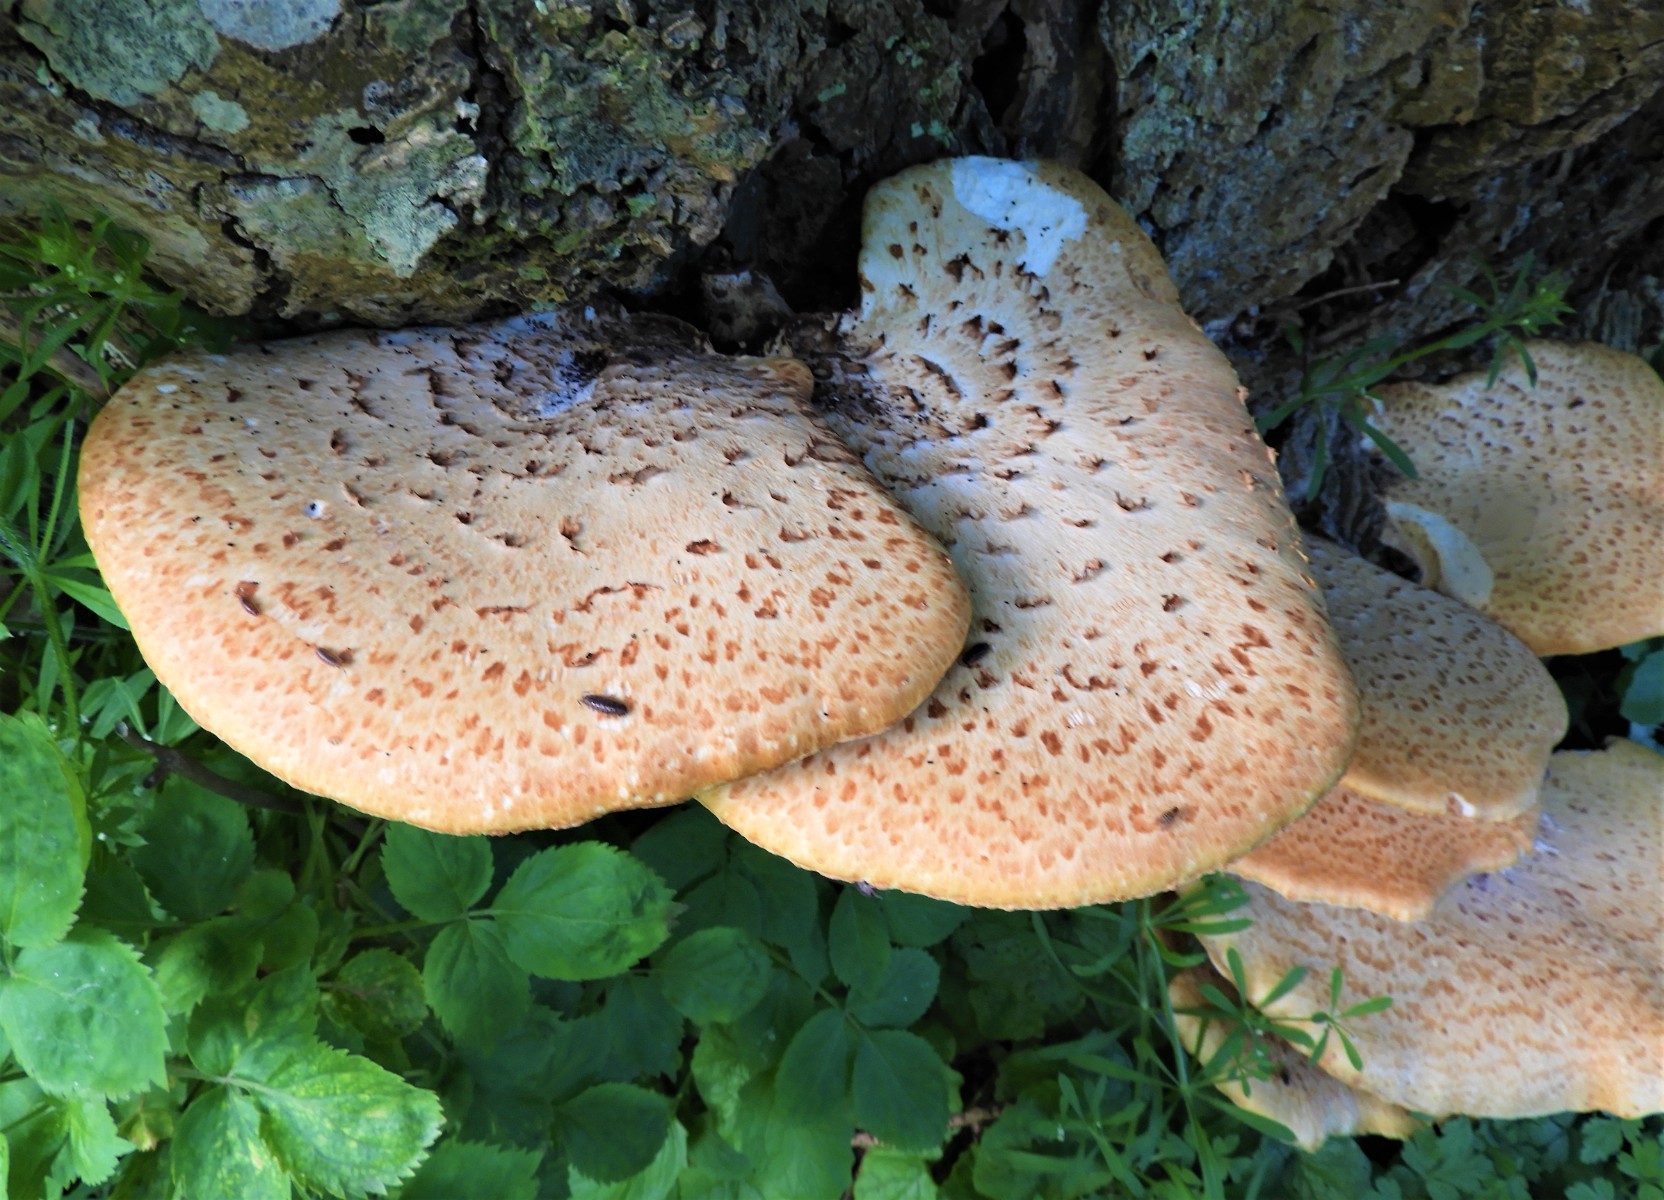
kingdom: Fungi
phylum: Basidiomycota
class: Agaricomycetes
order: Polyporales
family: Polyporaceae
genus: Cerioporus
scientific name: Cerioporus squamosus
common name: skællet stilkporesvamp
